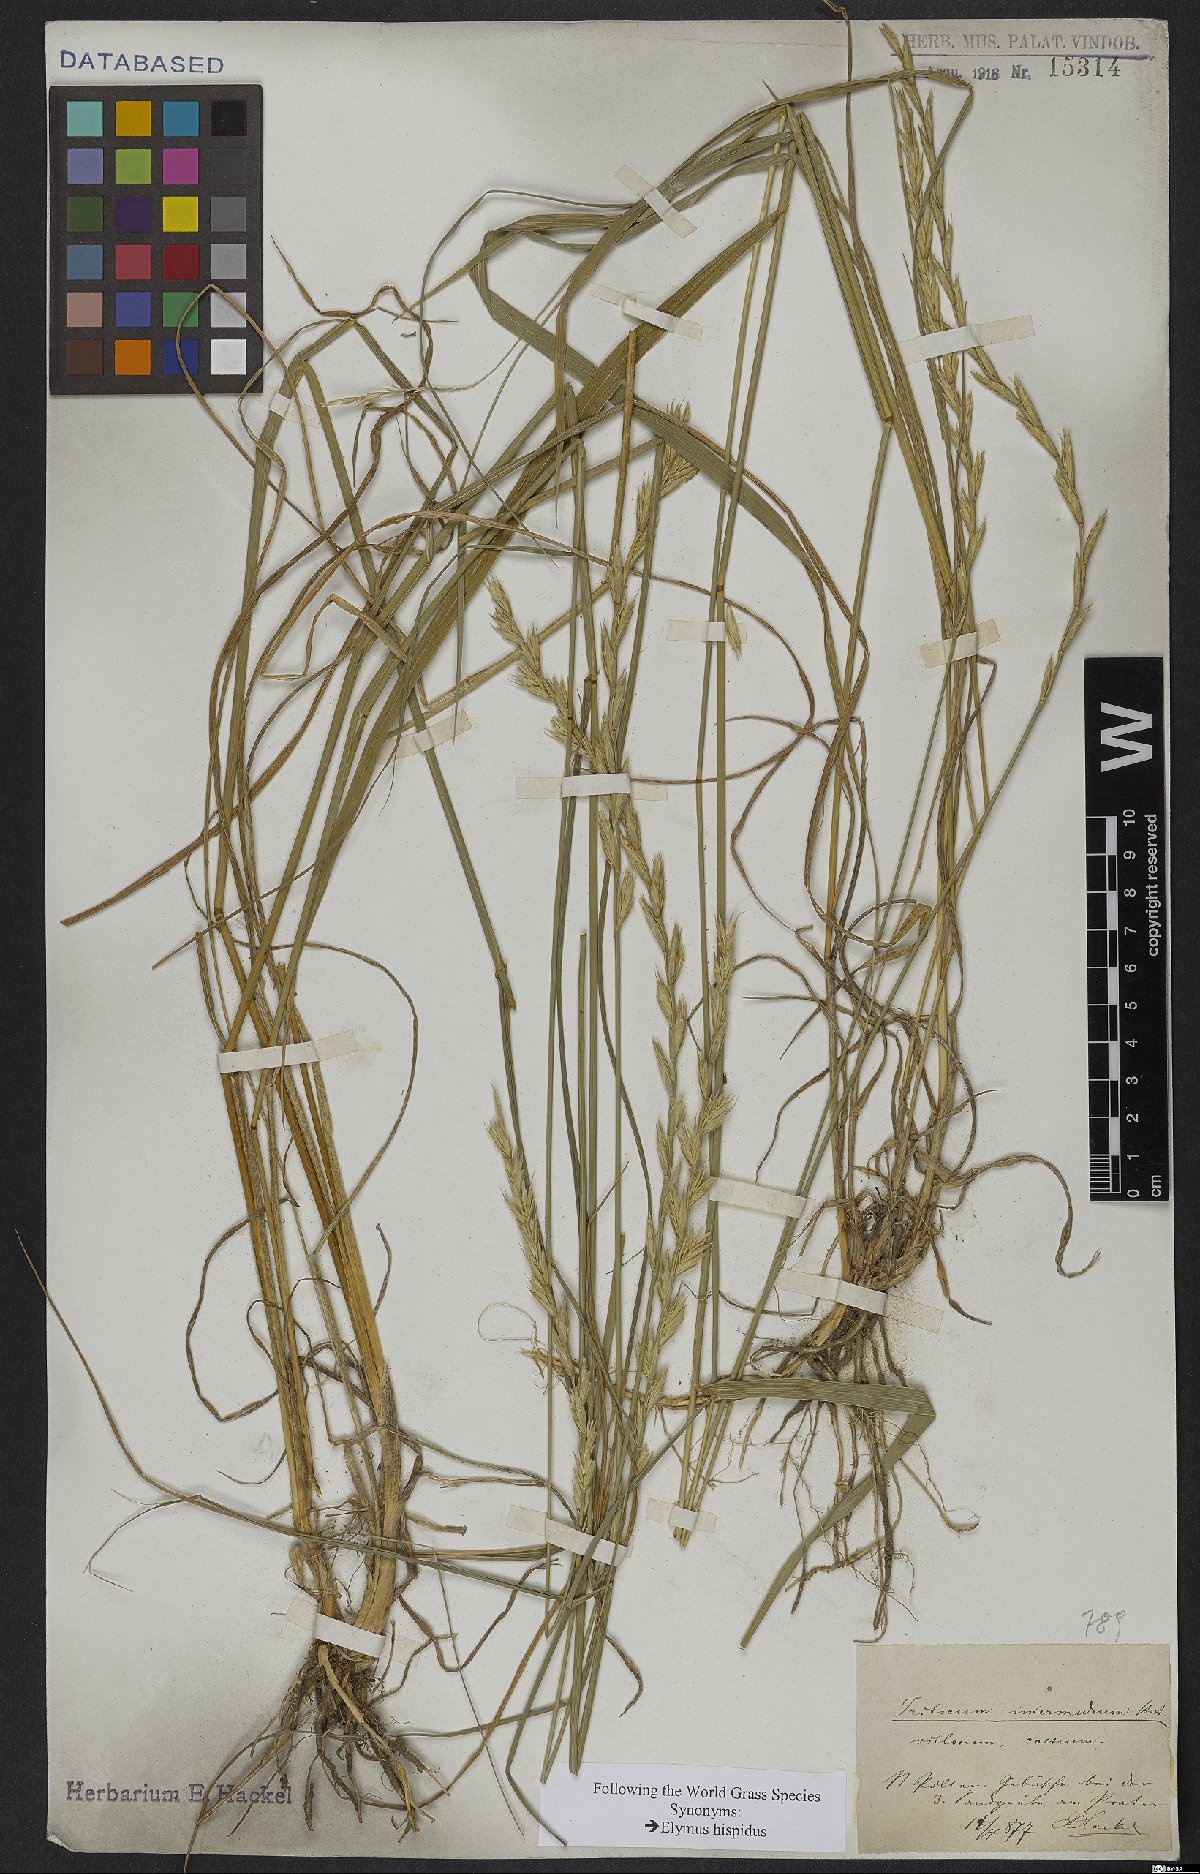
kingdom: Plantae
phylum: Tracheophyta
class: Liliopsida
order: Poales
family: Poaceae
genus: Thinopyrum
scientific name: Thinopyrum intermedium
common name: Intermediate wheatgrass
